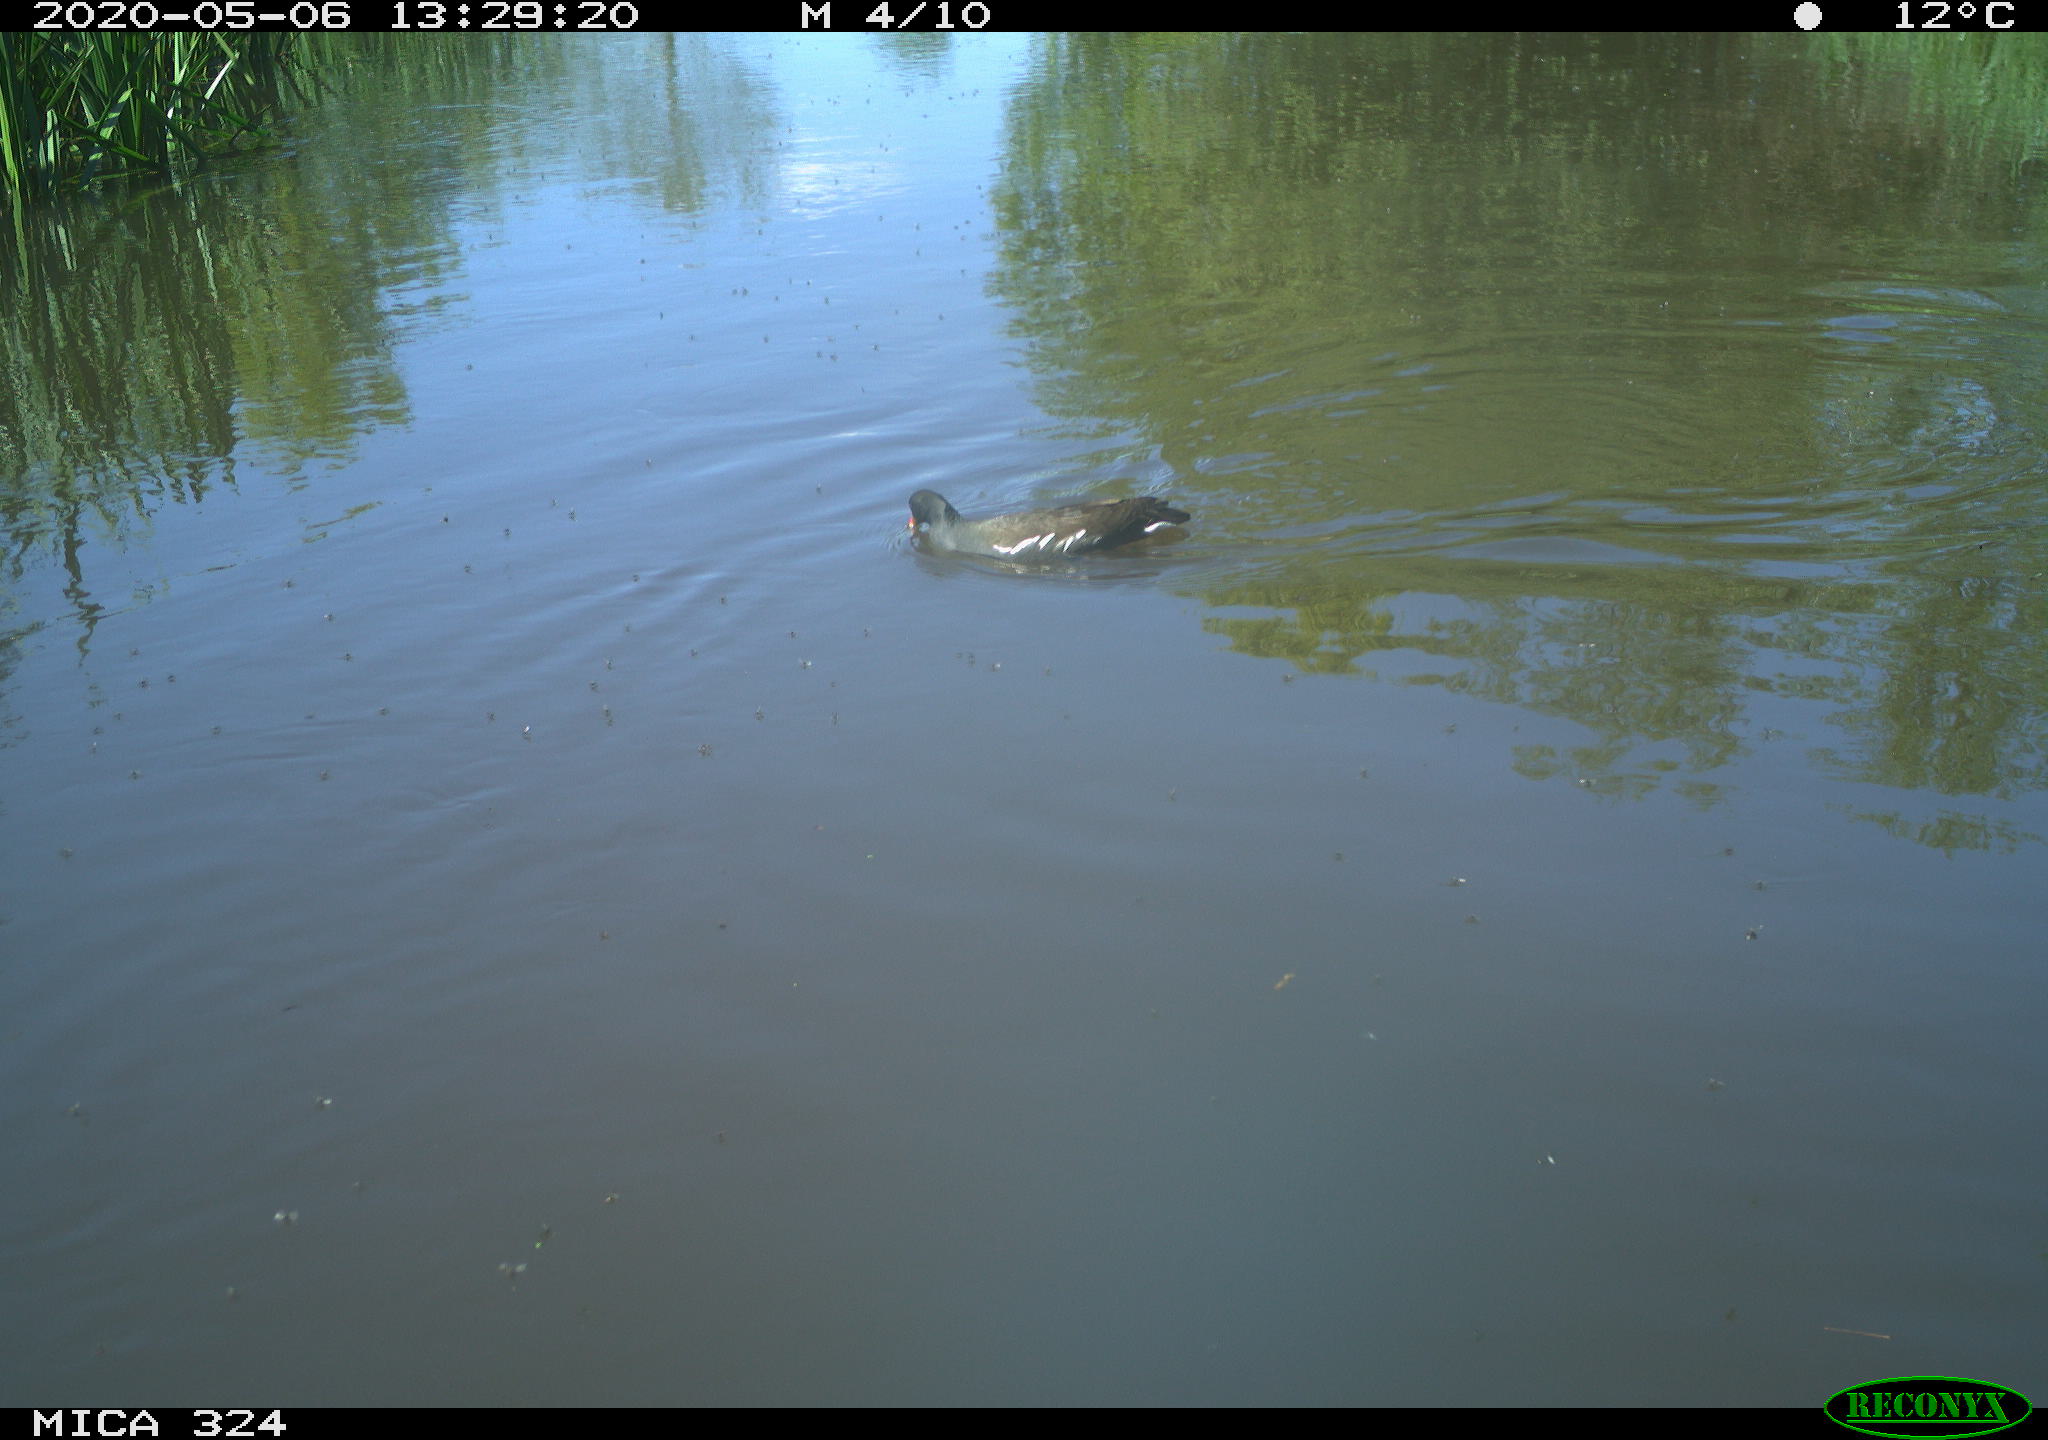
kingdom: Animalia
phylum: Chordata
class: Aves
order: Gruiformes
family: Rallidae
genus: Gallinula
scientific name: Gallinula chloropus
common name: Common moorhen
